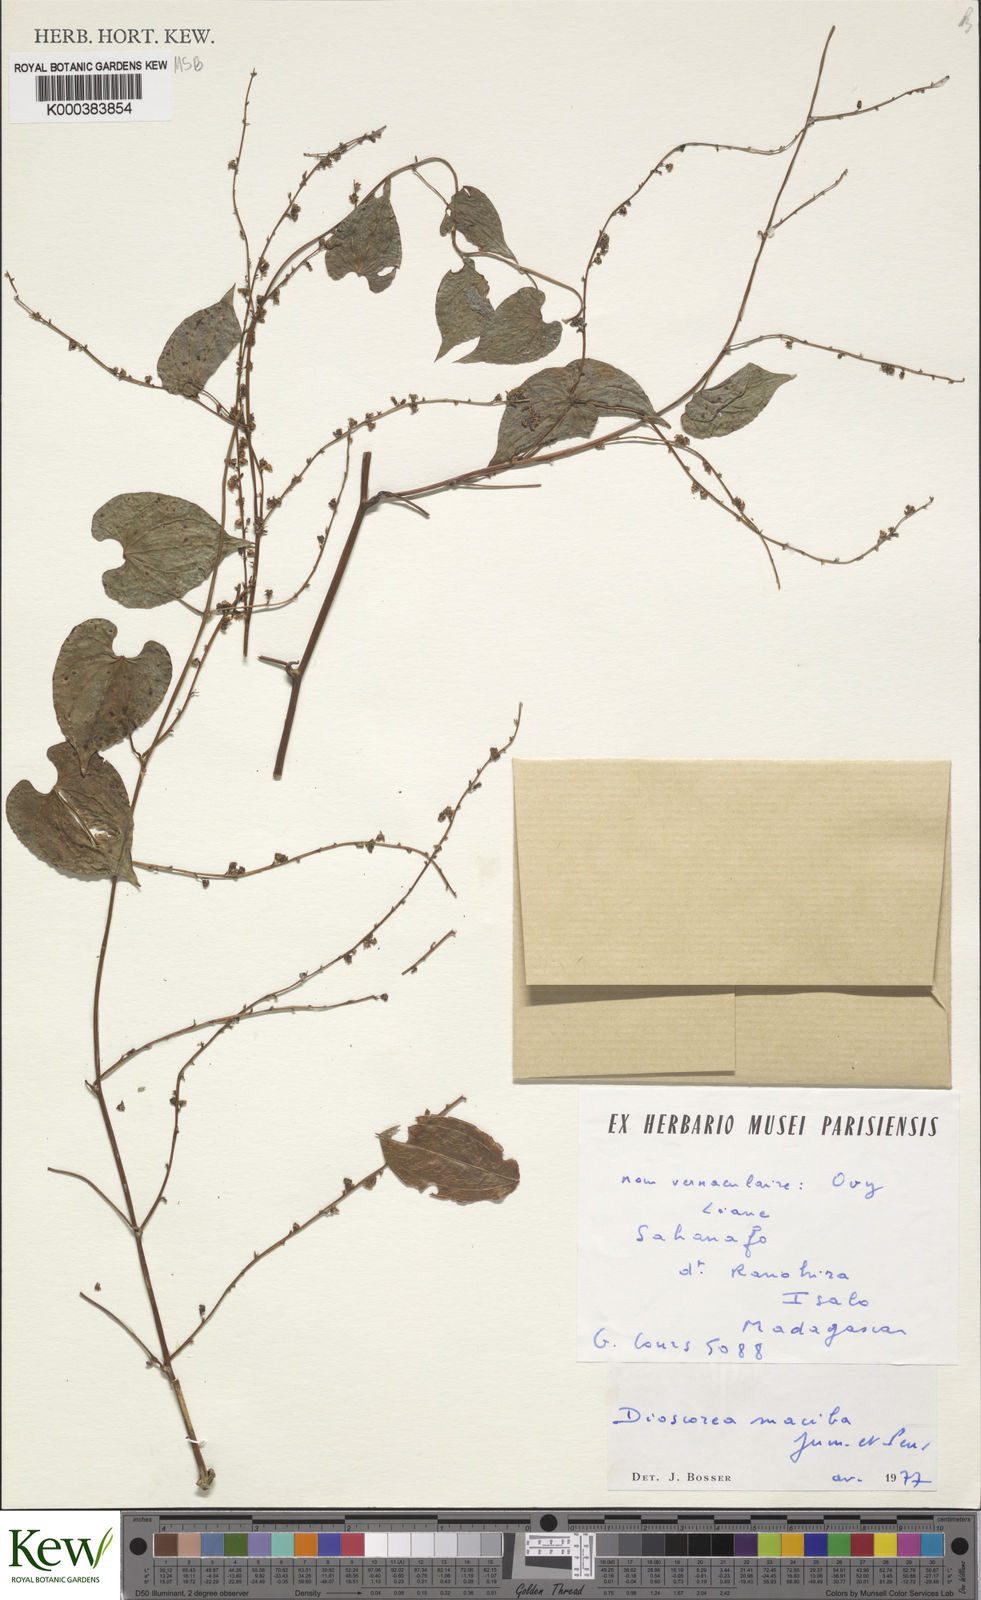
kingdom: Plantae
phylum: Tracheophyta
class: Liliopsida
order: Dioscoreales
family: Dioscoreaceae
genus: Dioscorea
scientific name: Dioscorea
